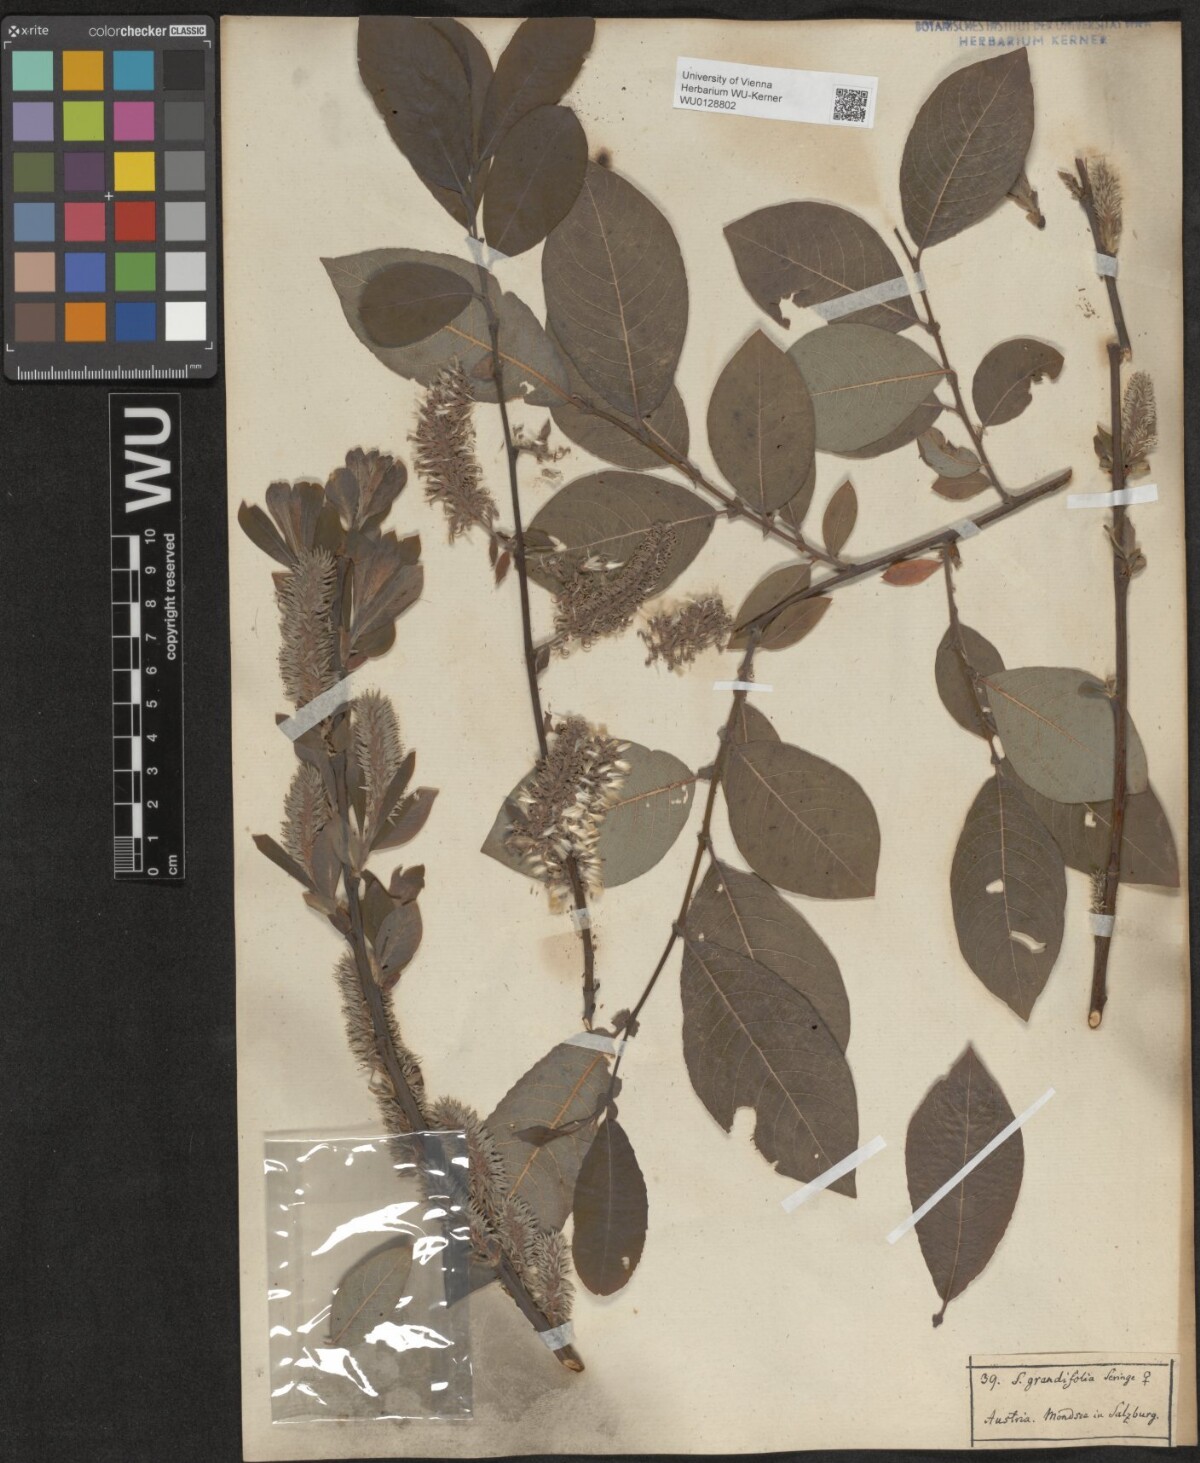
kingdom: Plantae
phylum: Tracheophyta
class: Magnoliopsida
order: Malpighiales
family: Salicaceae
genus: Salix
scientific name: Salix appendiculata
